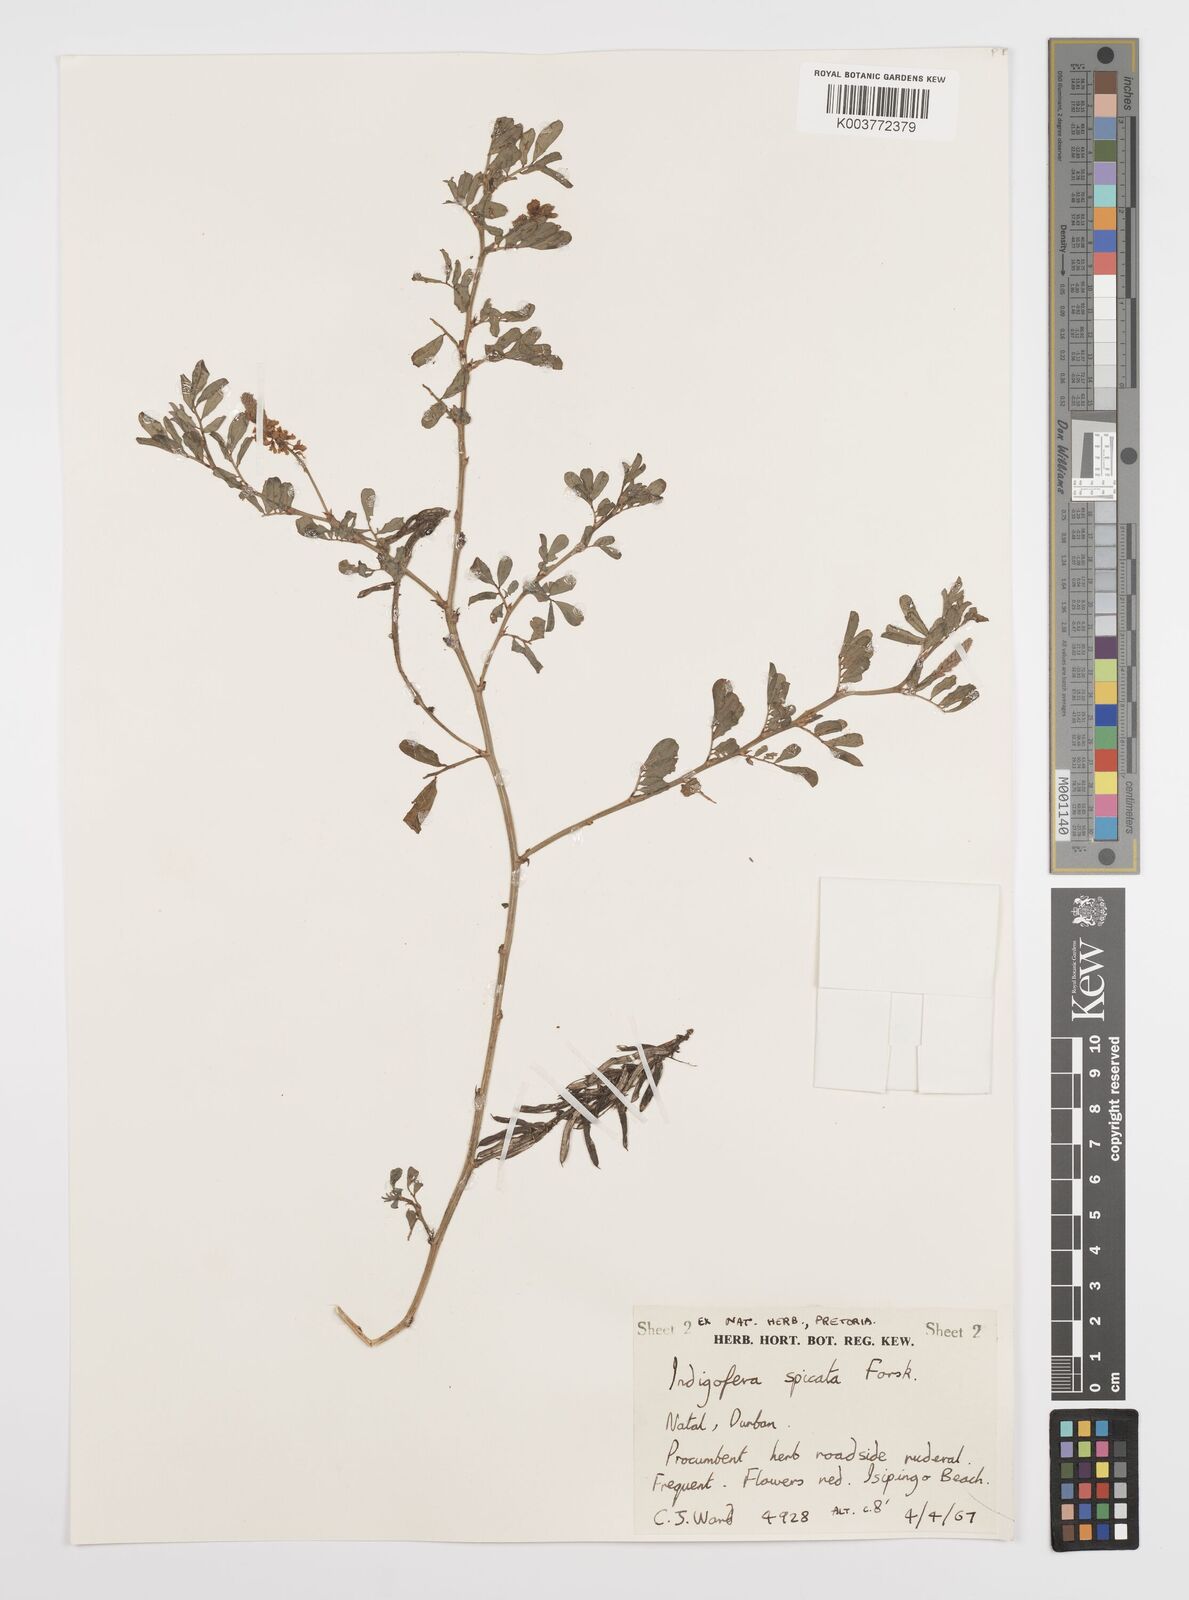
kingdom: Plantae
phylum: Tracheophyta
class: Magnoliopsida
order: Fabales
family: Fabaceae
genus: Indigofera
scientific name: Indigofera hendecaphylla
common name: Trailing indigo
